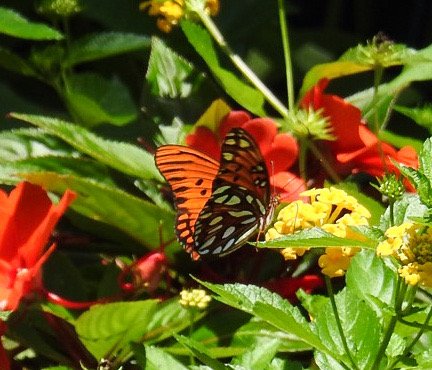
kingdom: Animalia
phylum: Arthropoda
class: Insecta
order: Lepidoptera
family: Nymphalidae
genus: Dione
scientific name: Dione vanillae
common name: Gulf Fritillary
